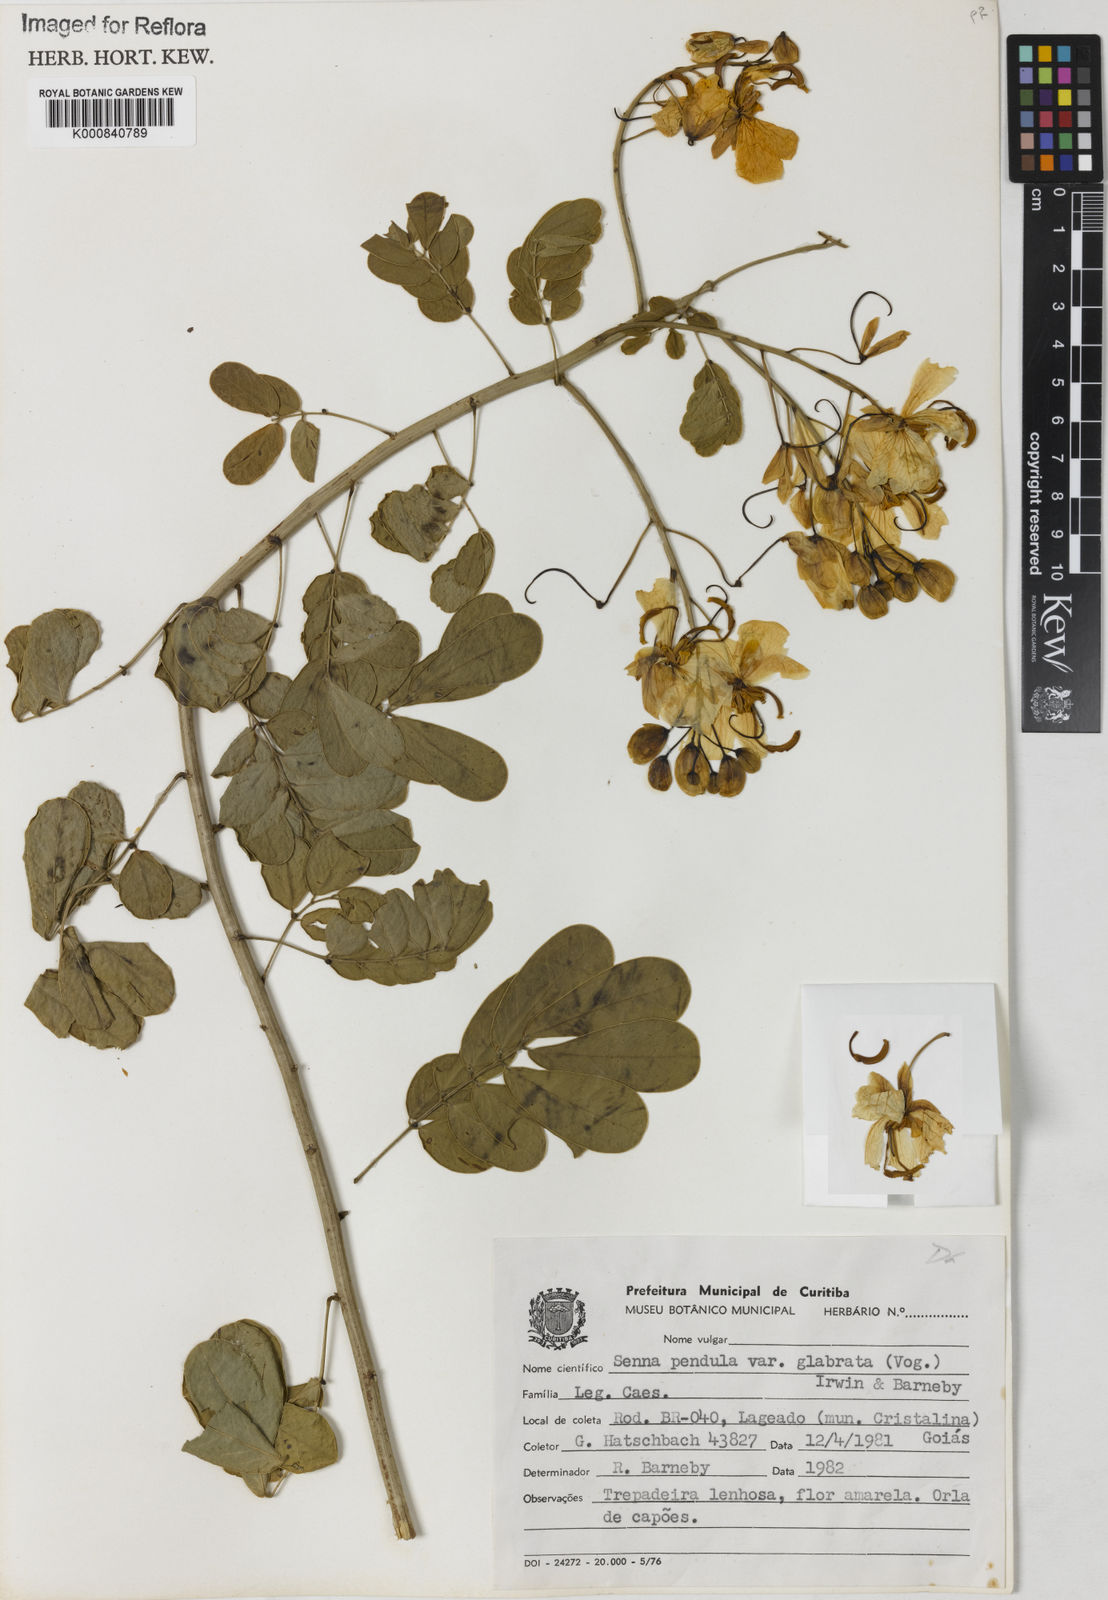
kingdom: Plantae
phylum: Tracheophyta
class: Magnoliopsida
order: Fabales
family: Fabaceae
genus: Senna
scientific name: Senna pendula
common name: Easter cassia
